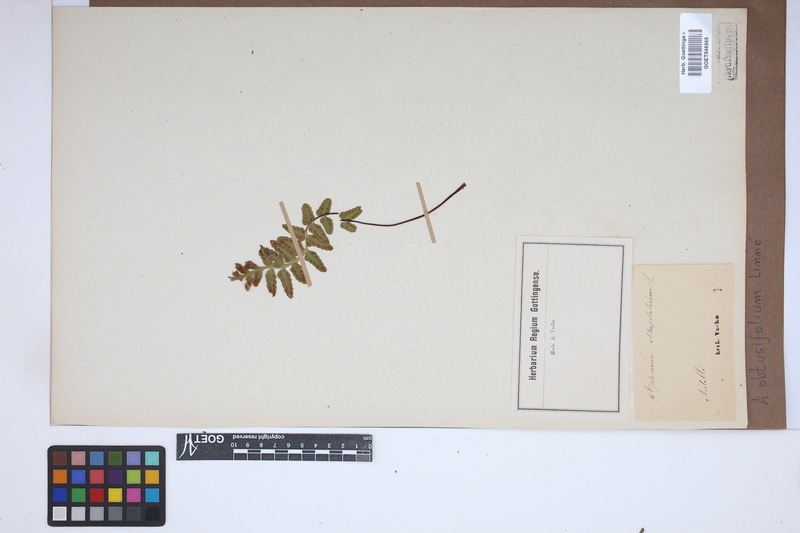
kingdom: Plantae
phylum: Tracheophyta
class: Polypodiopsida
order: Polypodiales
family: Aspleniaceae
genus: Hymenasplenium
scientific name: Hymenasplenium obtusifolium
